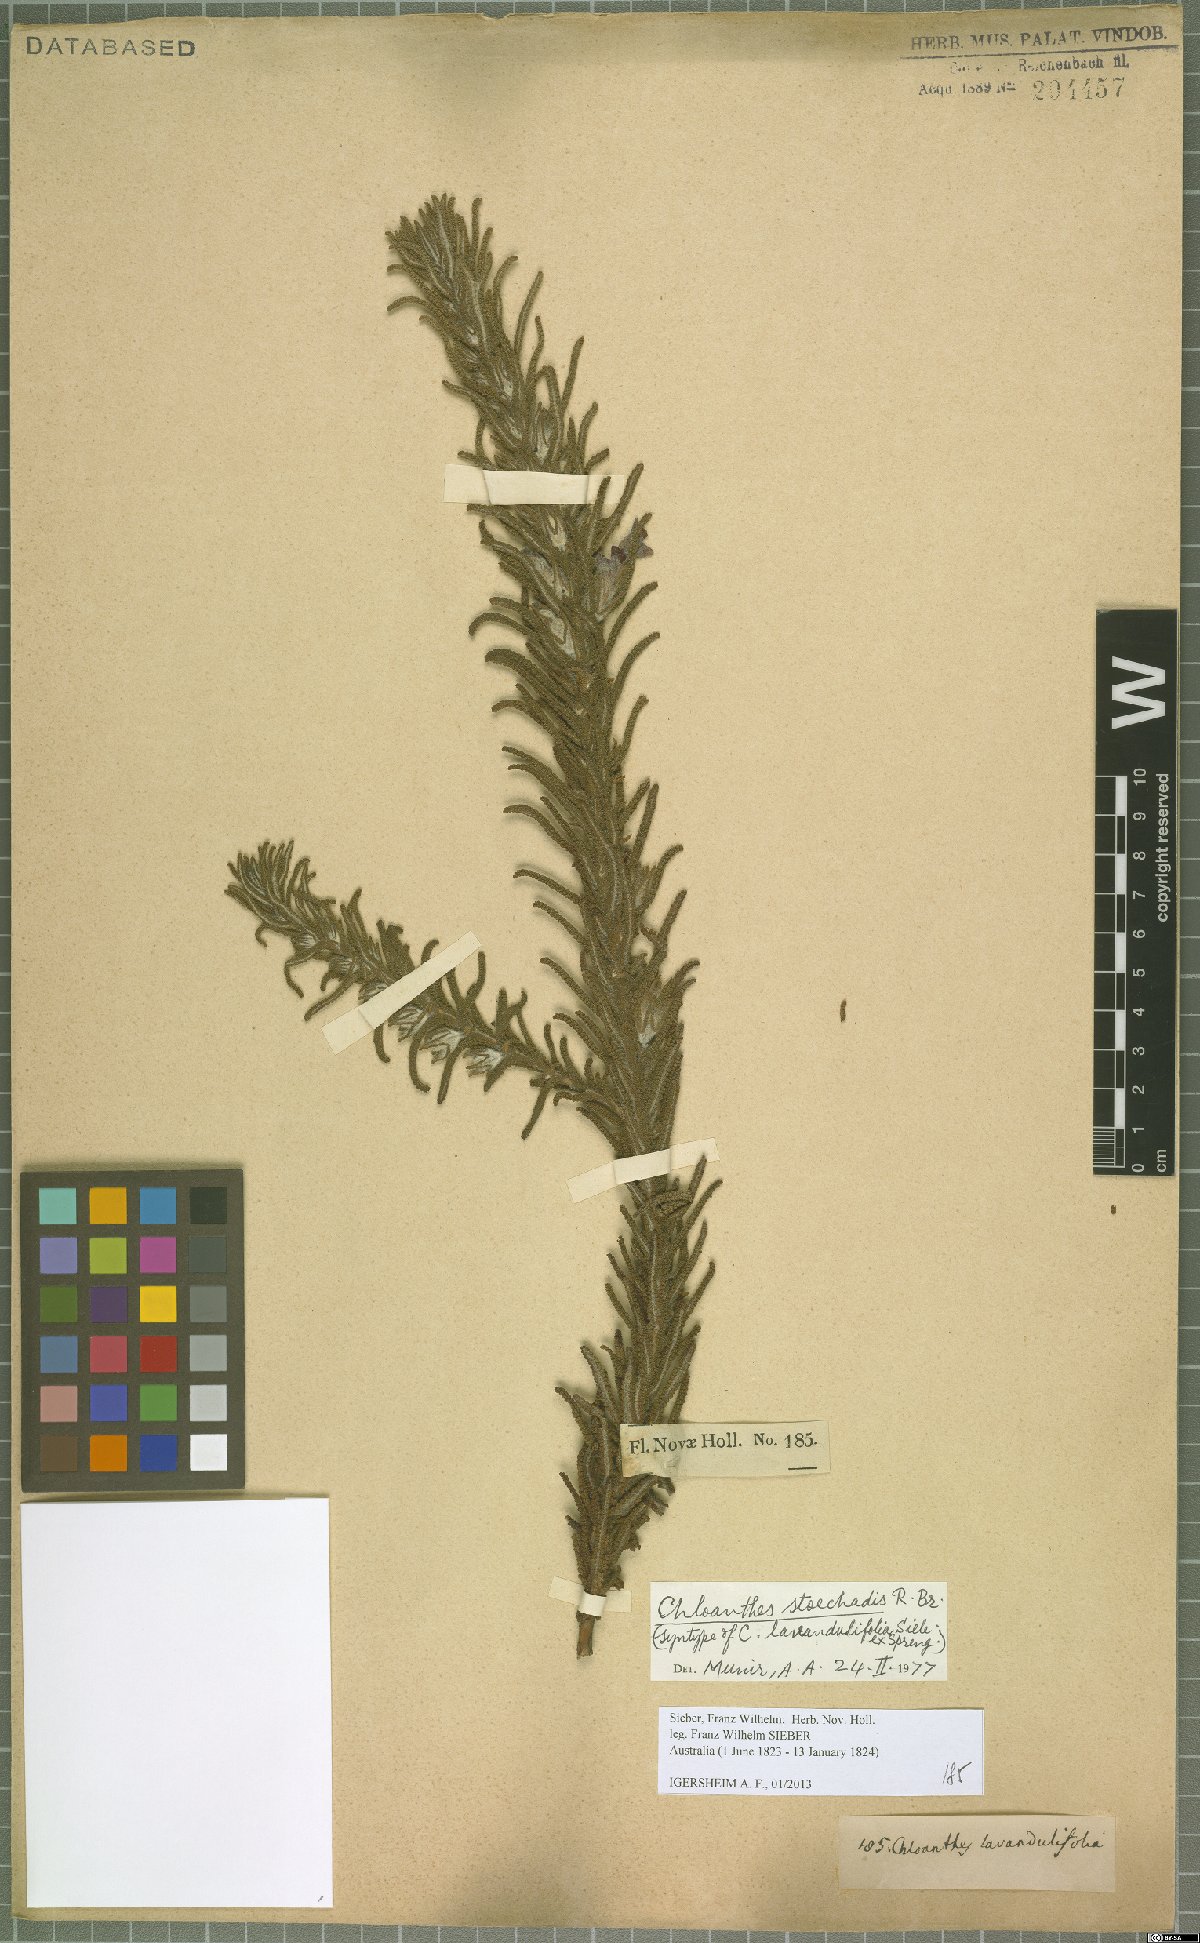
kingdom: Plantae
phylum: Tracheophyta
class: Magnoliopsida
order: Lamiales
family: Lamiaceae
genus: Chloanthes
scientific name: Chloanthes stoechadis
